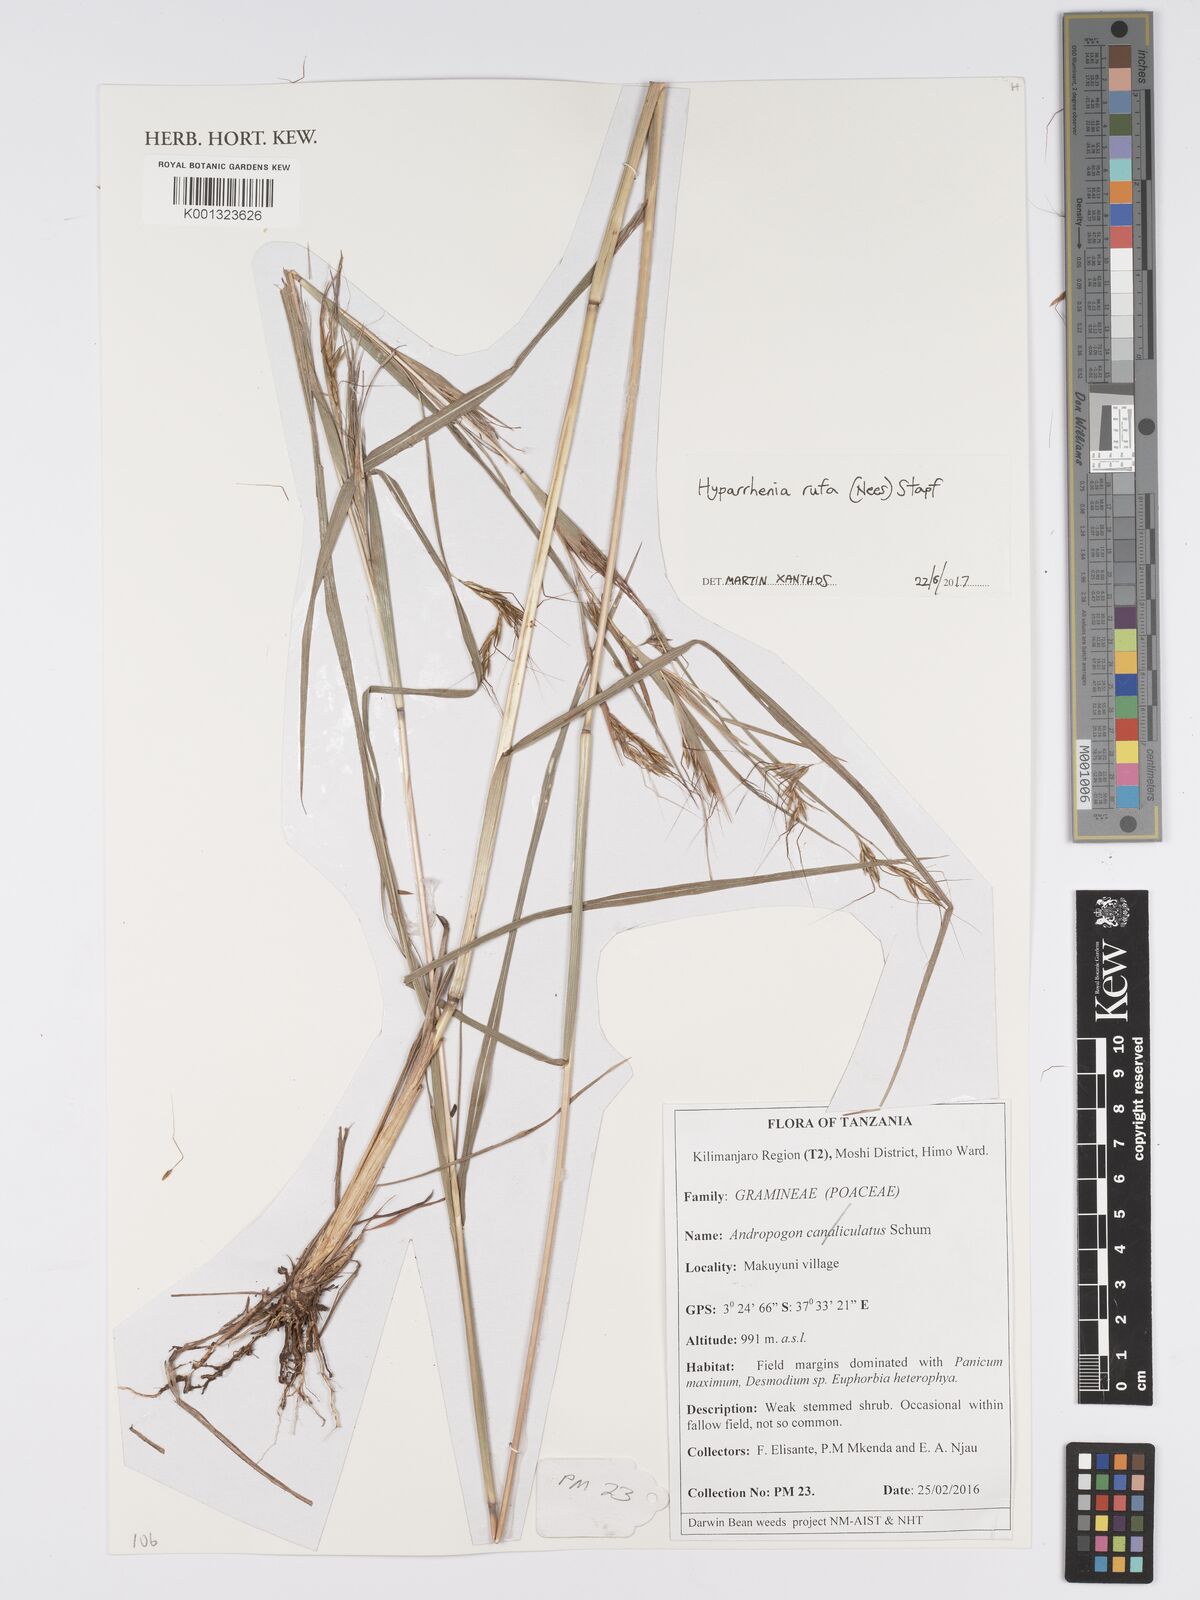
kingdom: Plantae
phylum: Tracheophyta
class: Liliopsida
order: Poales
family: Poaceae
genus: Hyparrhenia
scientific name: Hyparrhenia rufa
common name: Jaraguagrass
